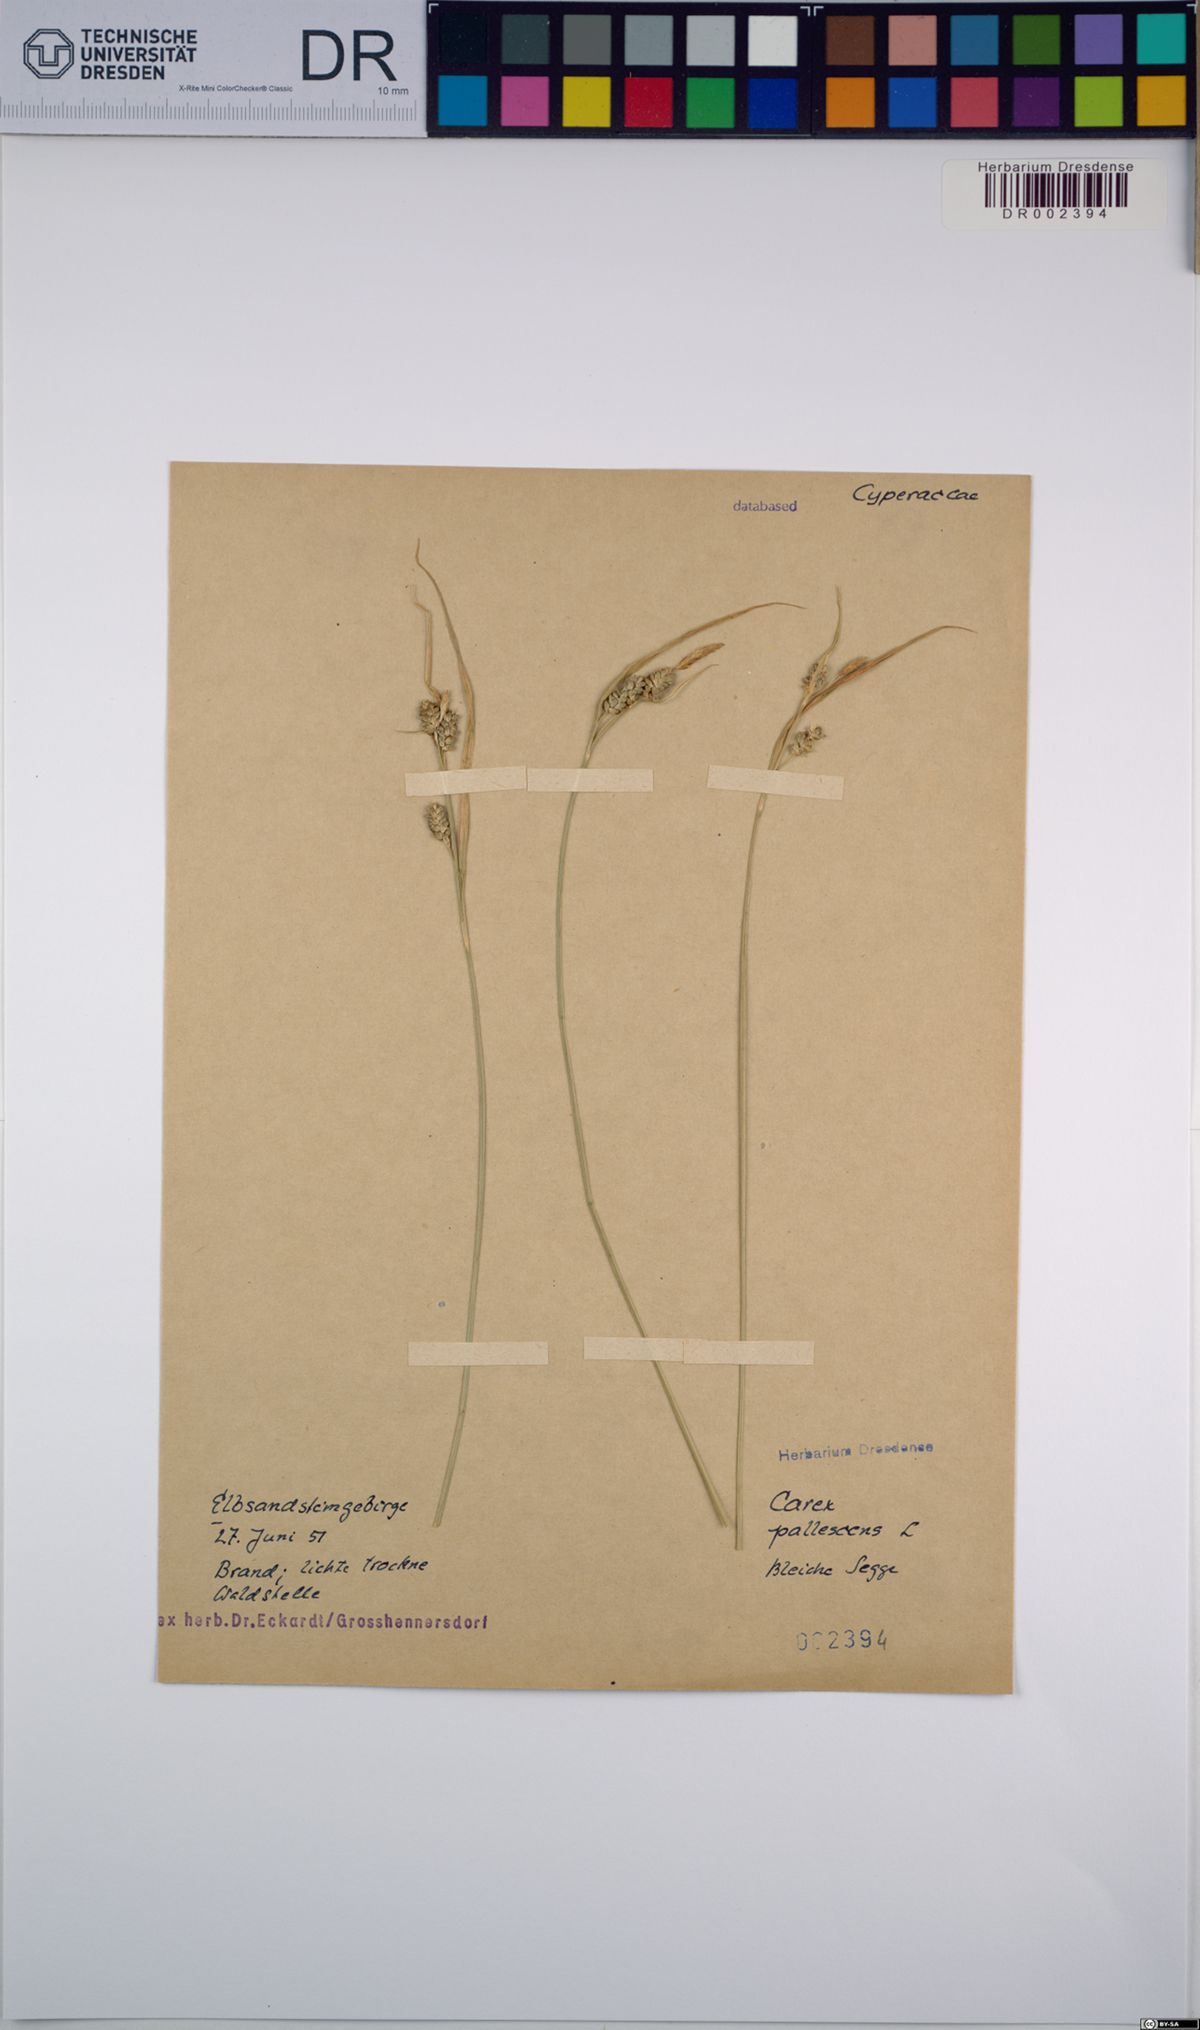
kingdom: Plantae
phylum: Tracheophyta
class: Liliopsida
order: Poales
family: Cyperaceae
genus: Carex
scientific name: Carex pallescens
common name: Pale sedge
